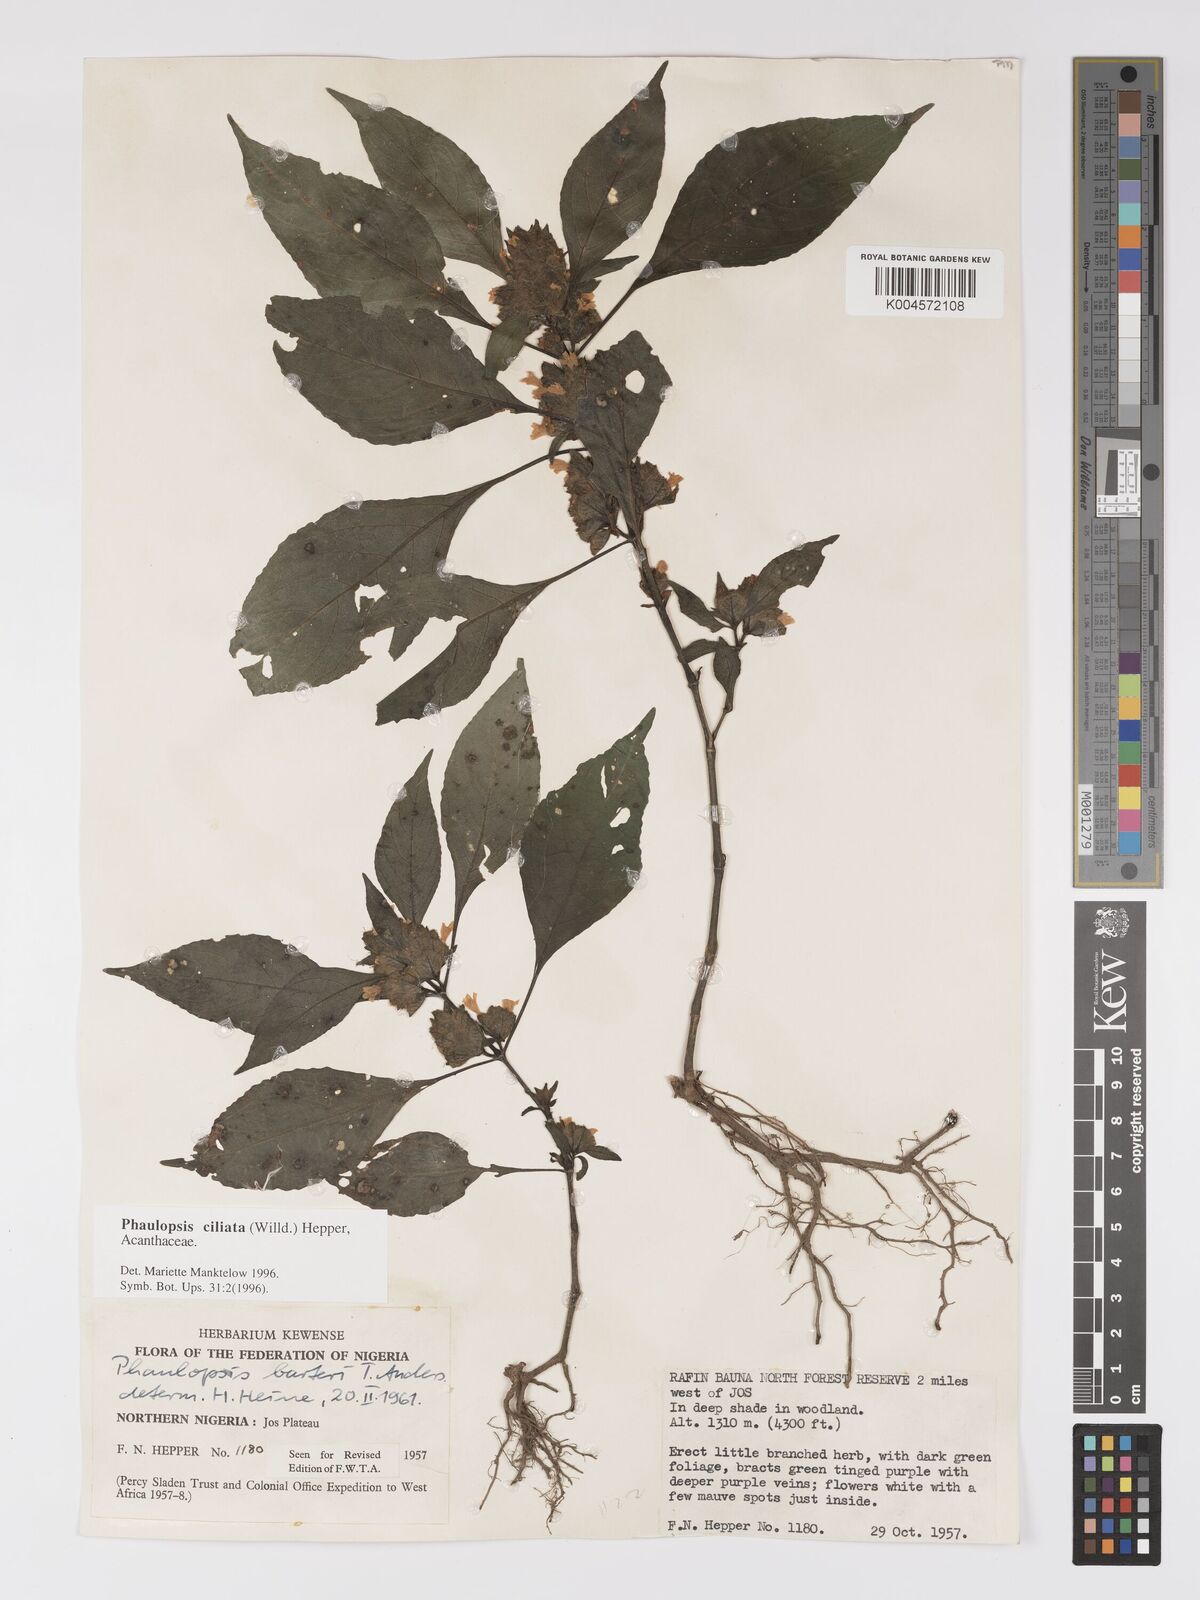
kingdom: Plantae
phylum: Tracheophyta
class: Magnoliopsida
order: Lamiales
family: Acanthaceae
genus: Phaulopsis
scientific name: Phaulopsis ciliata
